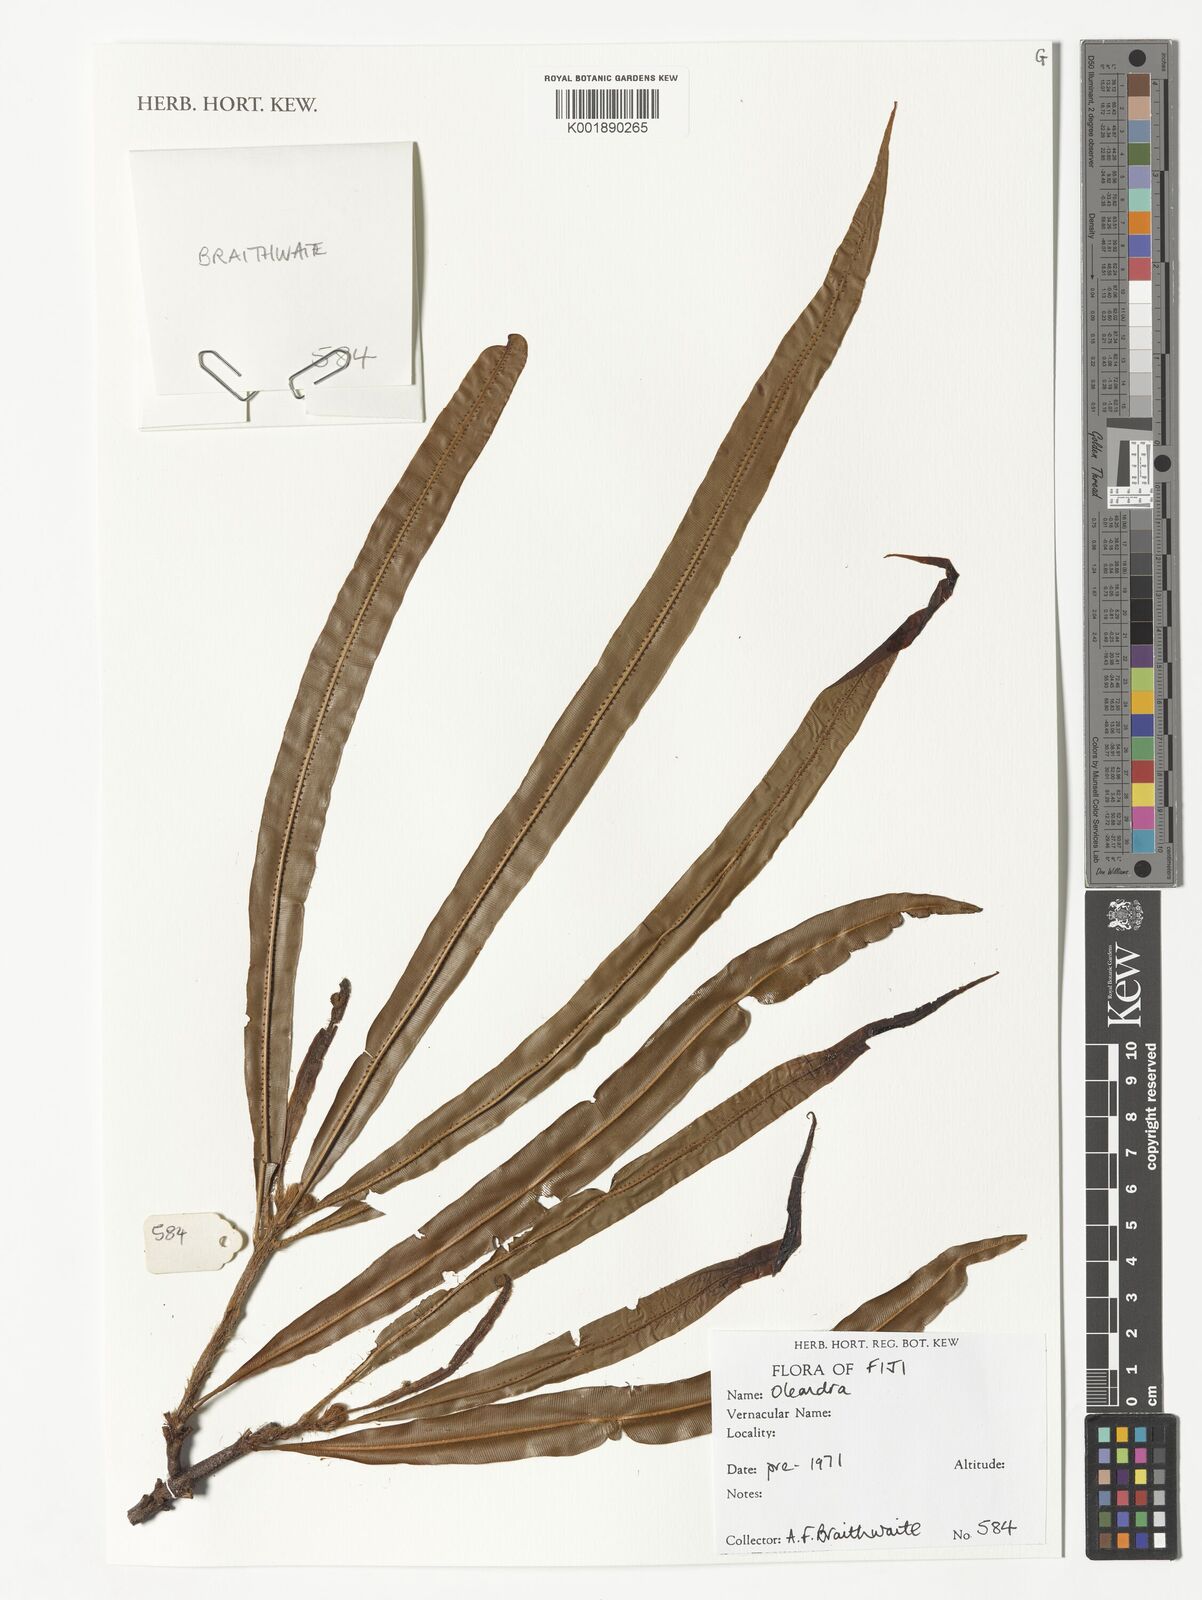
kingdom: Plantae
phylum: Tracheophyta
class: Polypodiopsida
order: Polypodiales
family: Oleandraceae
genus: Oleandra
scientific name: Oleandra
